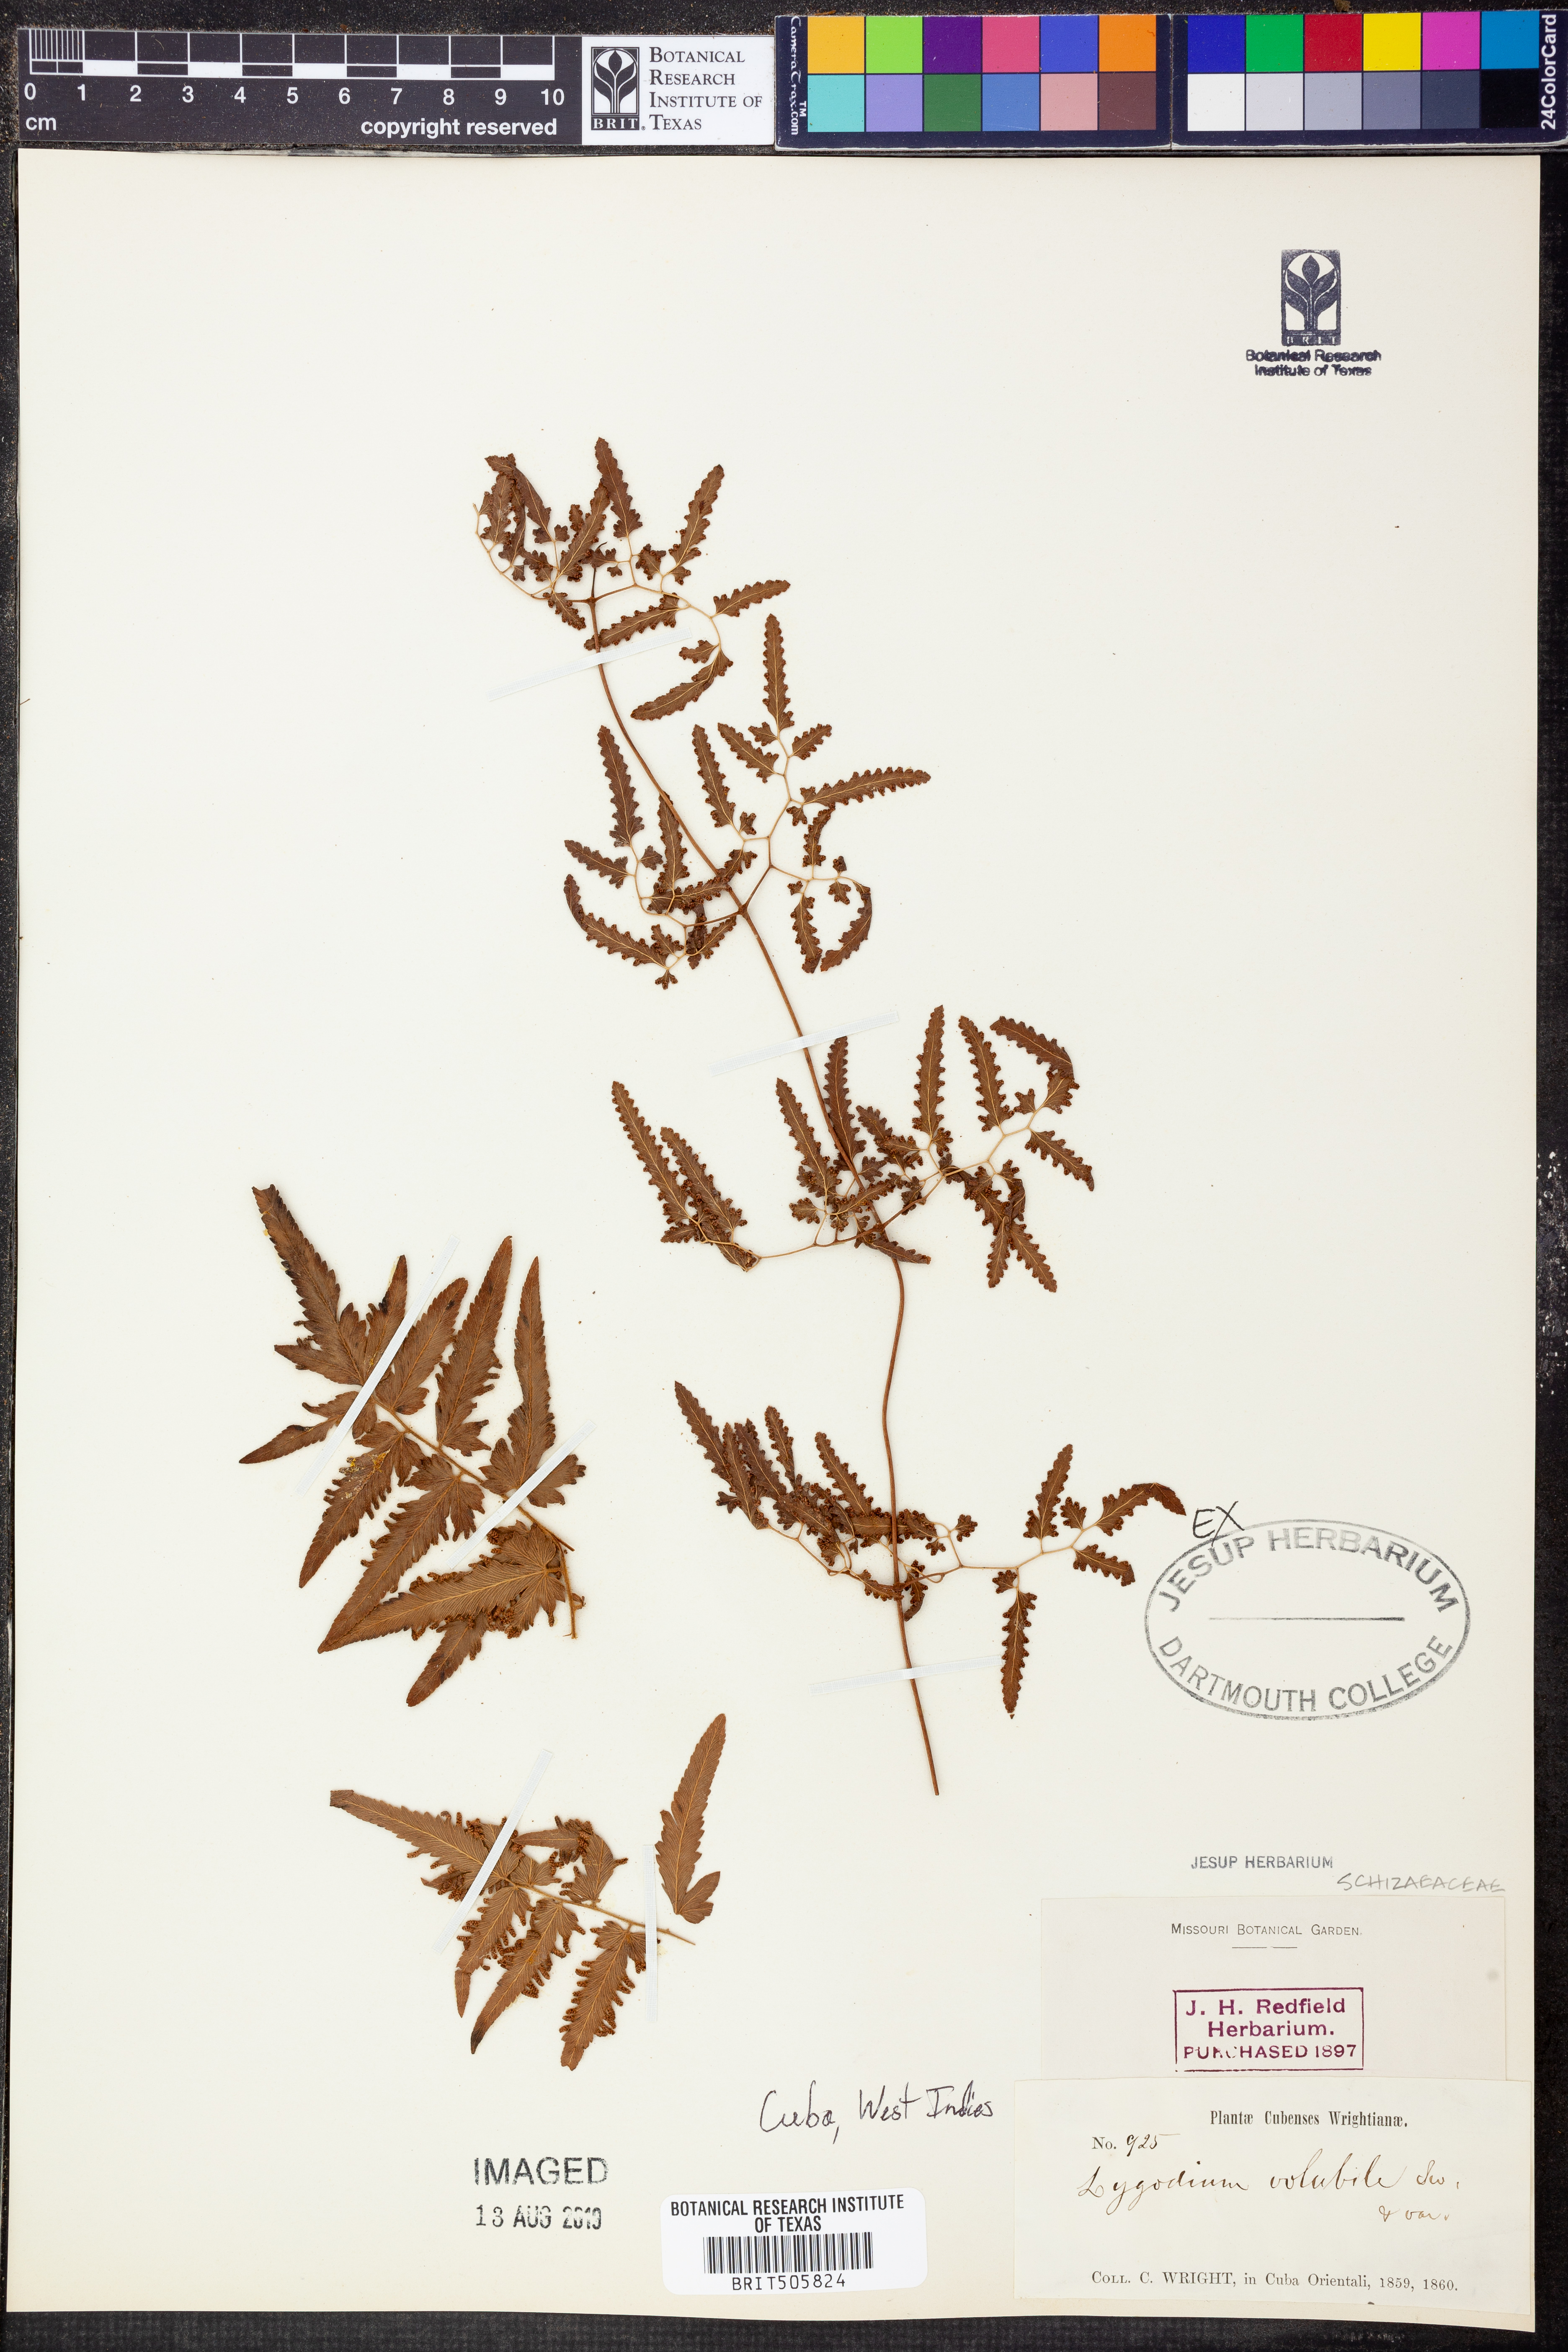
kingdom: Plantae
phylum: Tracheophyta
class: Polypodiopsida
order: Schizaeales
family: Lygodiaceae
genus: Lygodium
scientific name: Lygodium volubile
